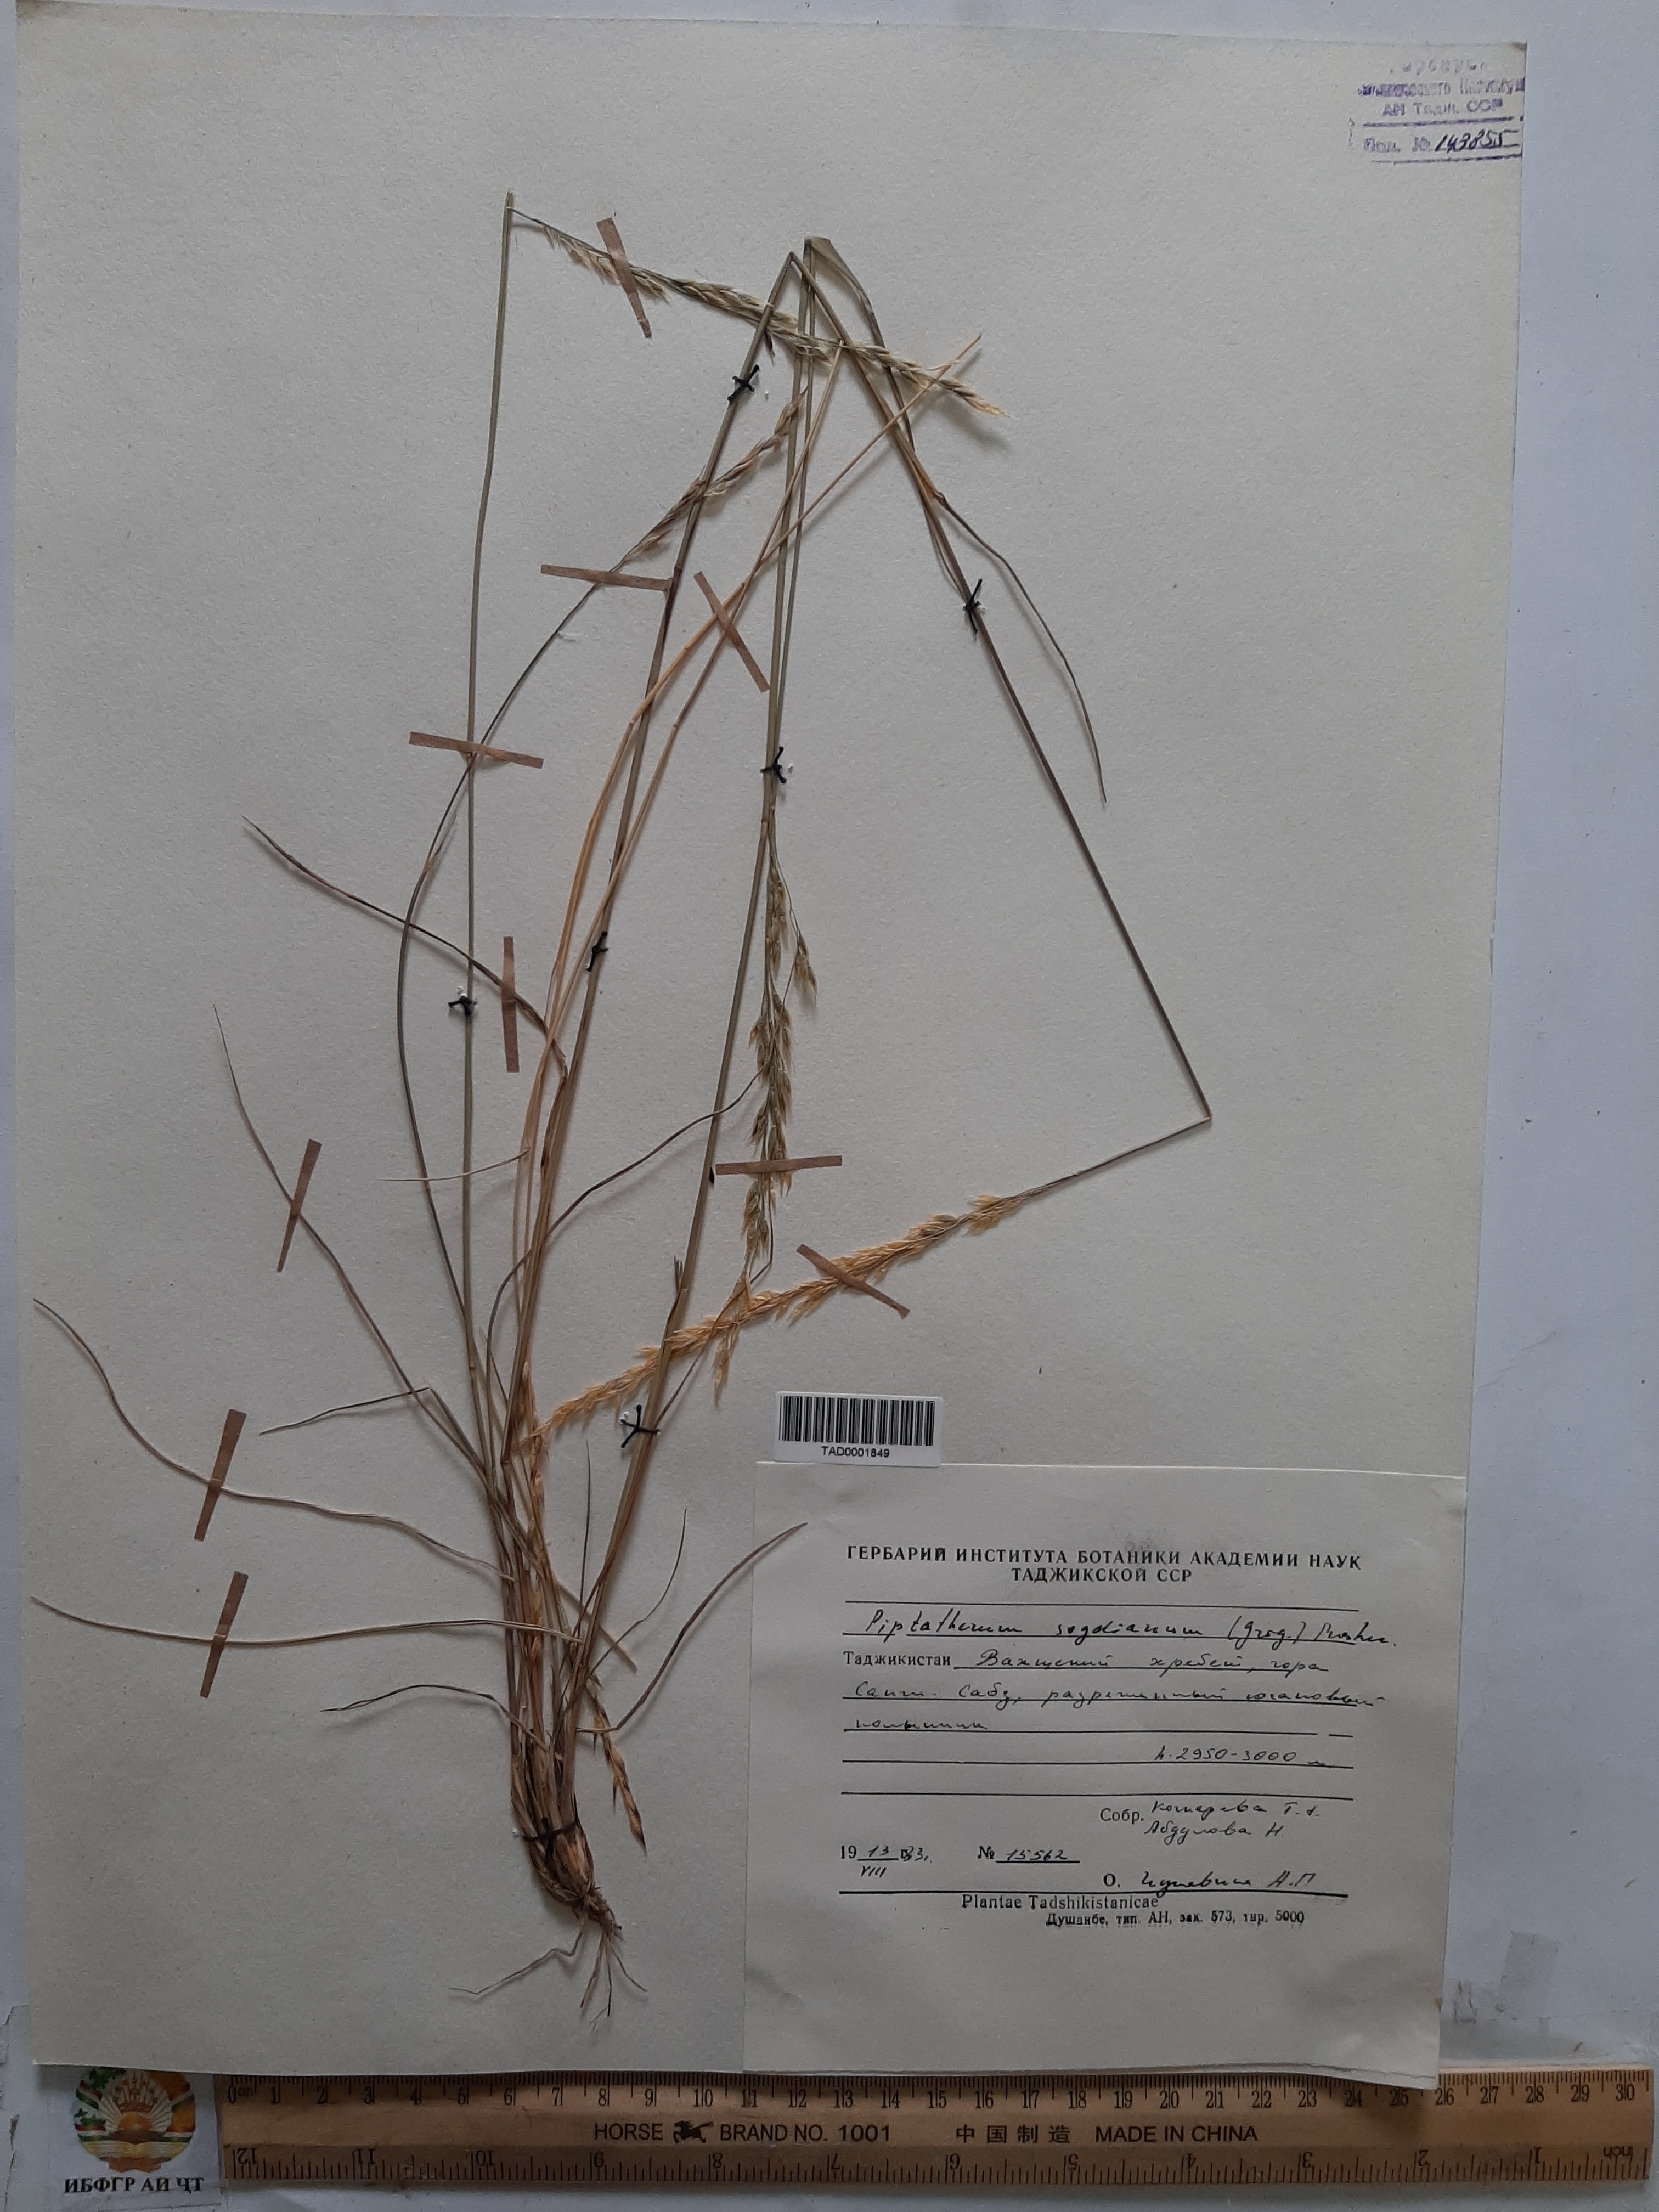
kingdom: Plantae
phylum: Tracheophyta
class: Liliopsida
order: Poales
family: Poaceae
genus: Piptatherum
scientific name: Piptatherum sogdianum
